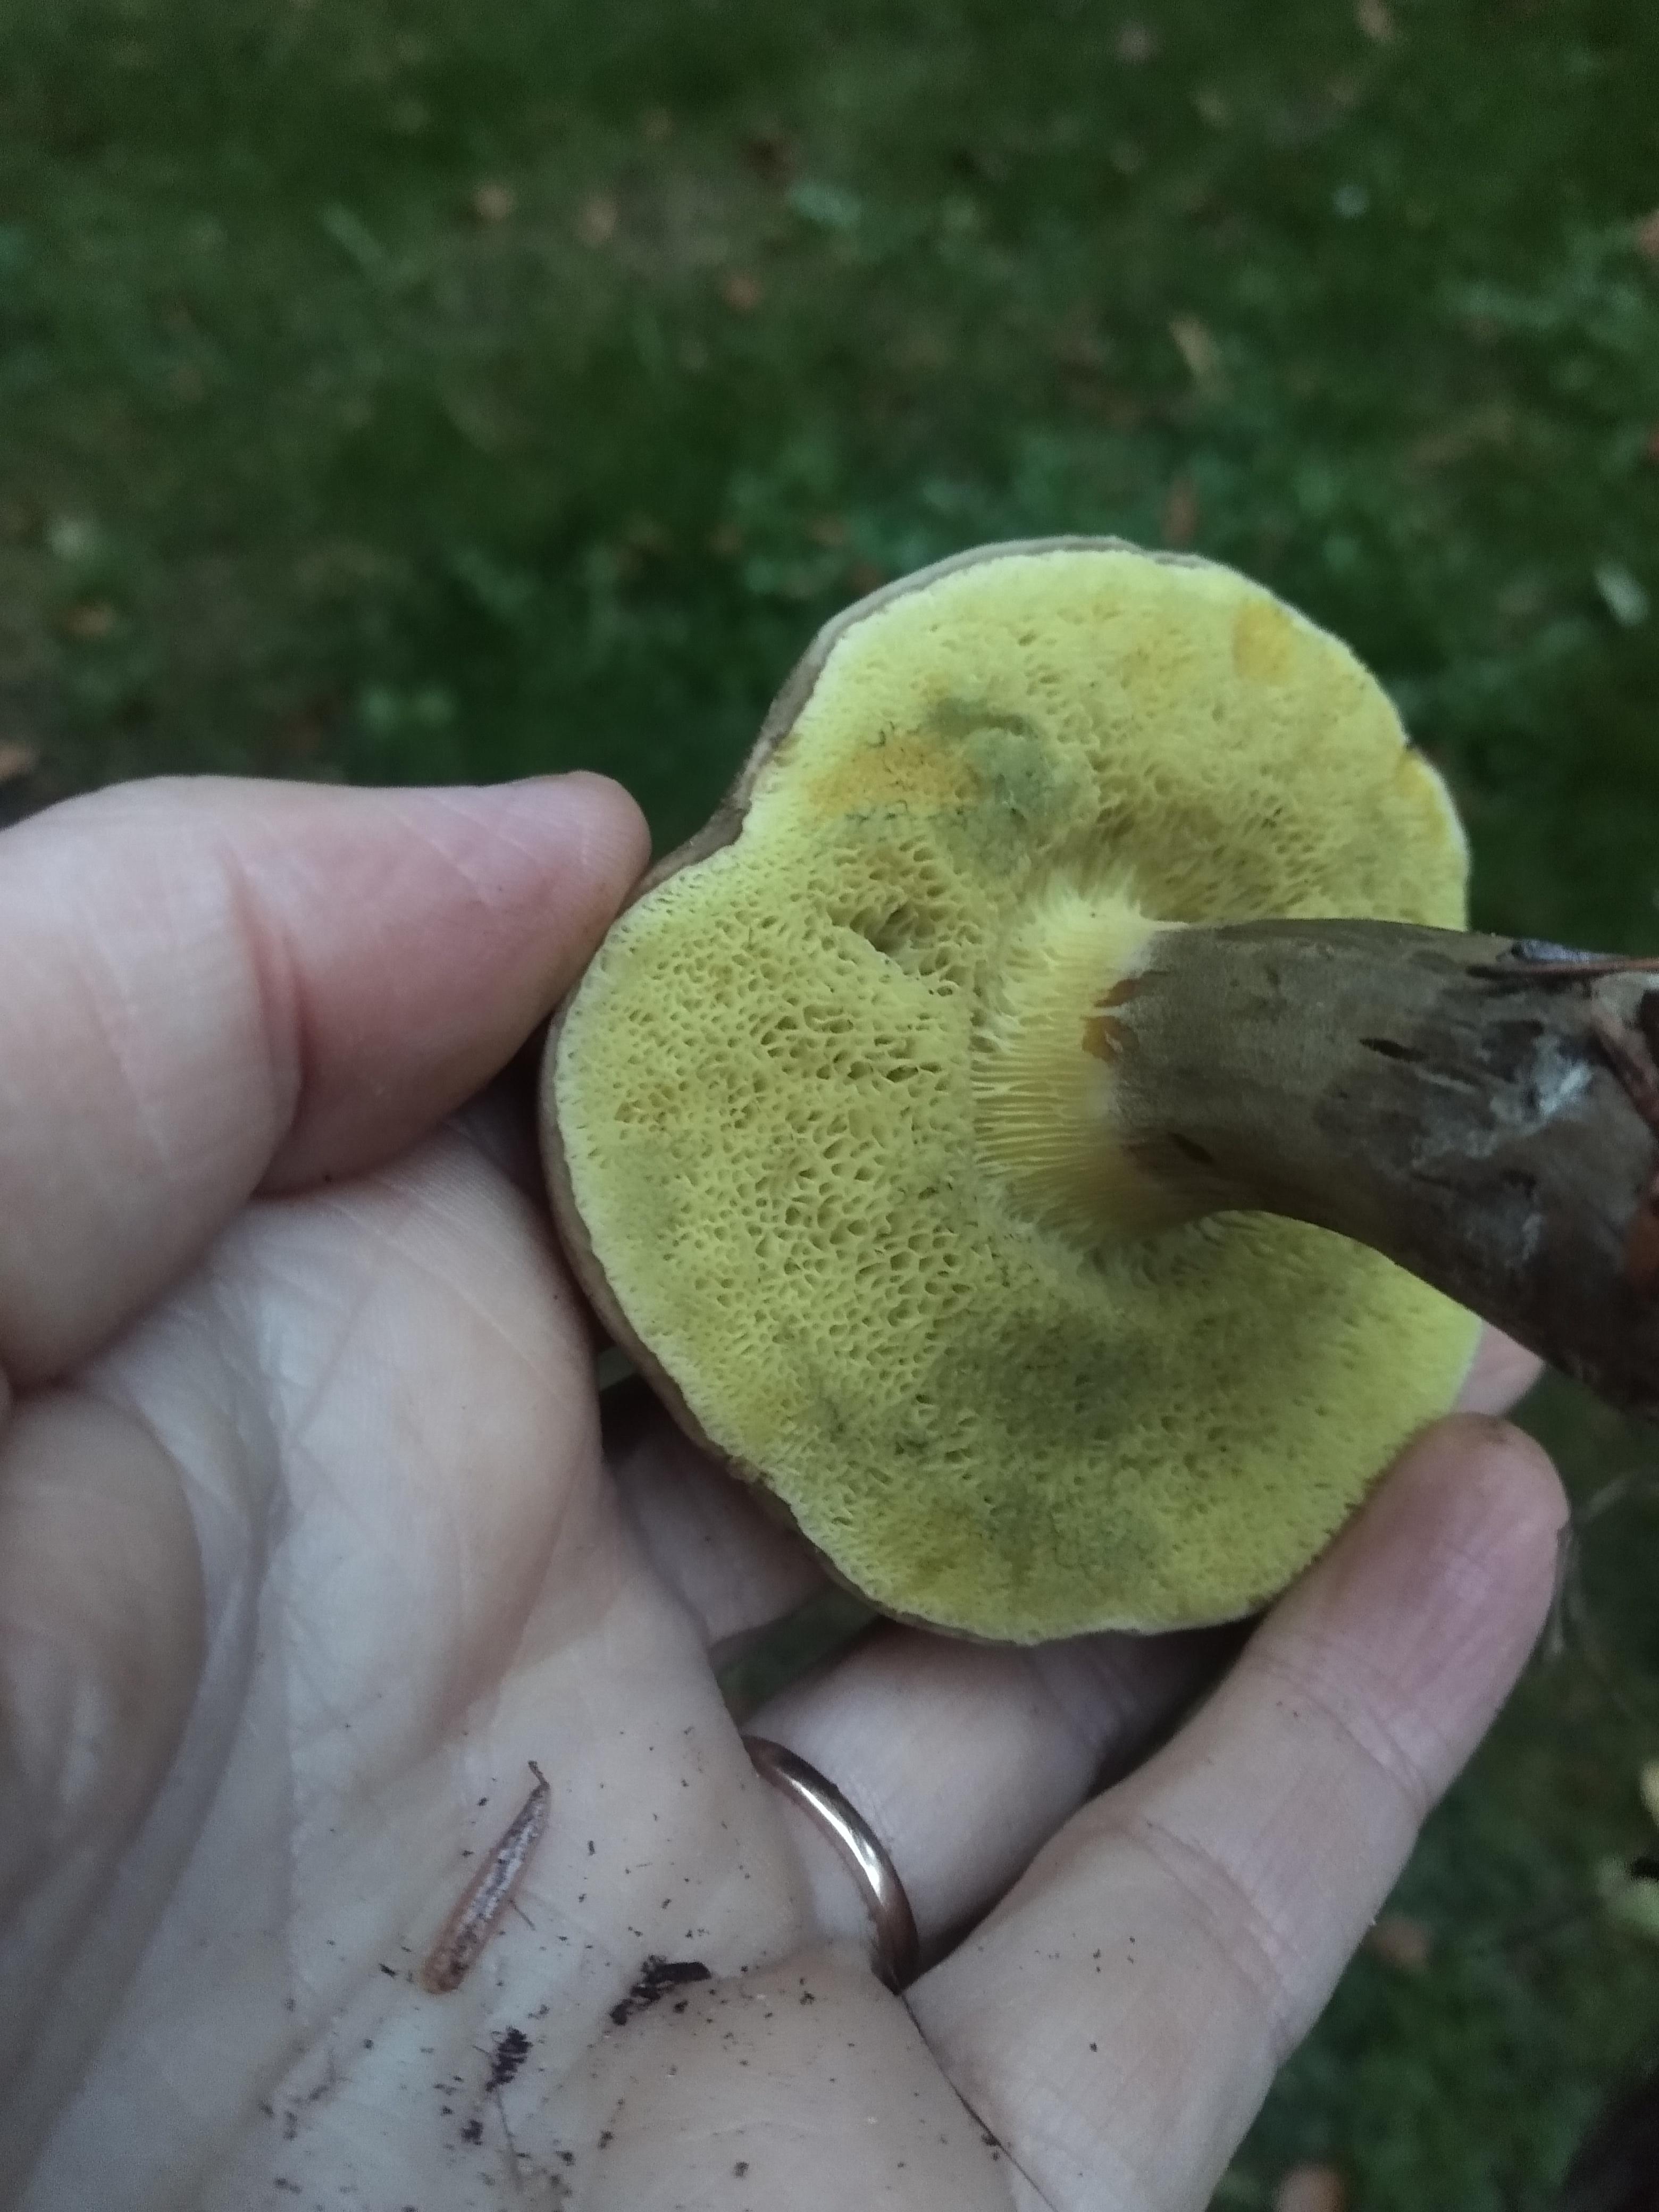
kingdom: Fungi
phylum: Basidiomycota
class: Agaricomycetes
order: Boletales
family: Boletaceae
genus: Xerocomellus
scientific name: Xerocomellus porosporus
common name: hvidsprukken rørhat
